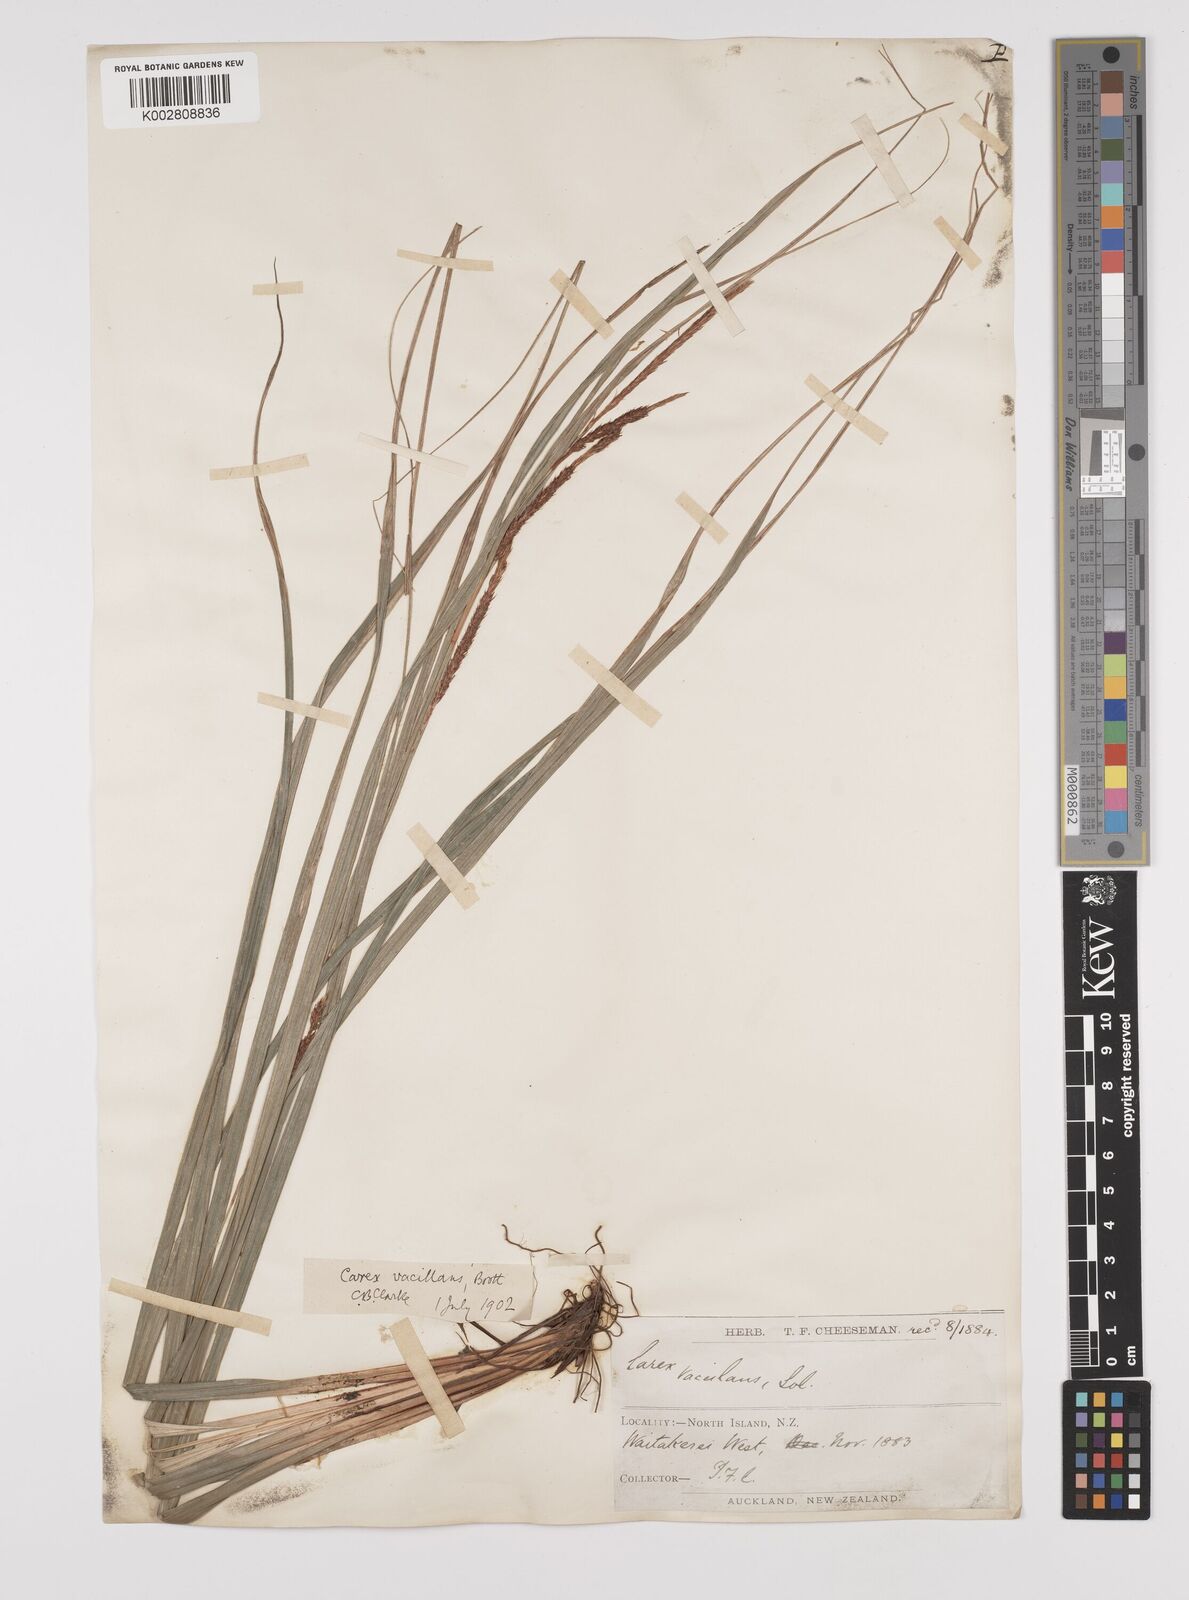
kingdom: Plantae
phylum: Tracheophyta
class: Liliopsida
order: Poales
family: Cyperaceae
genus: Carex
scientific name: Carex spinirostris
